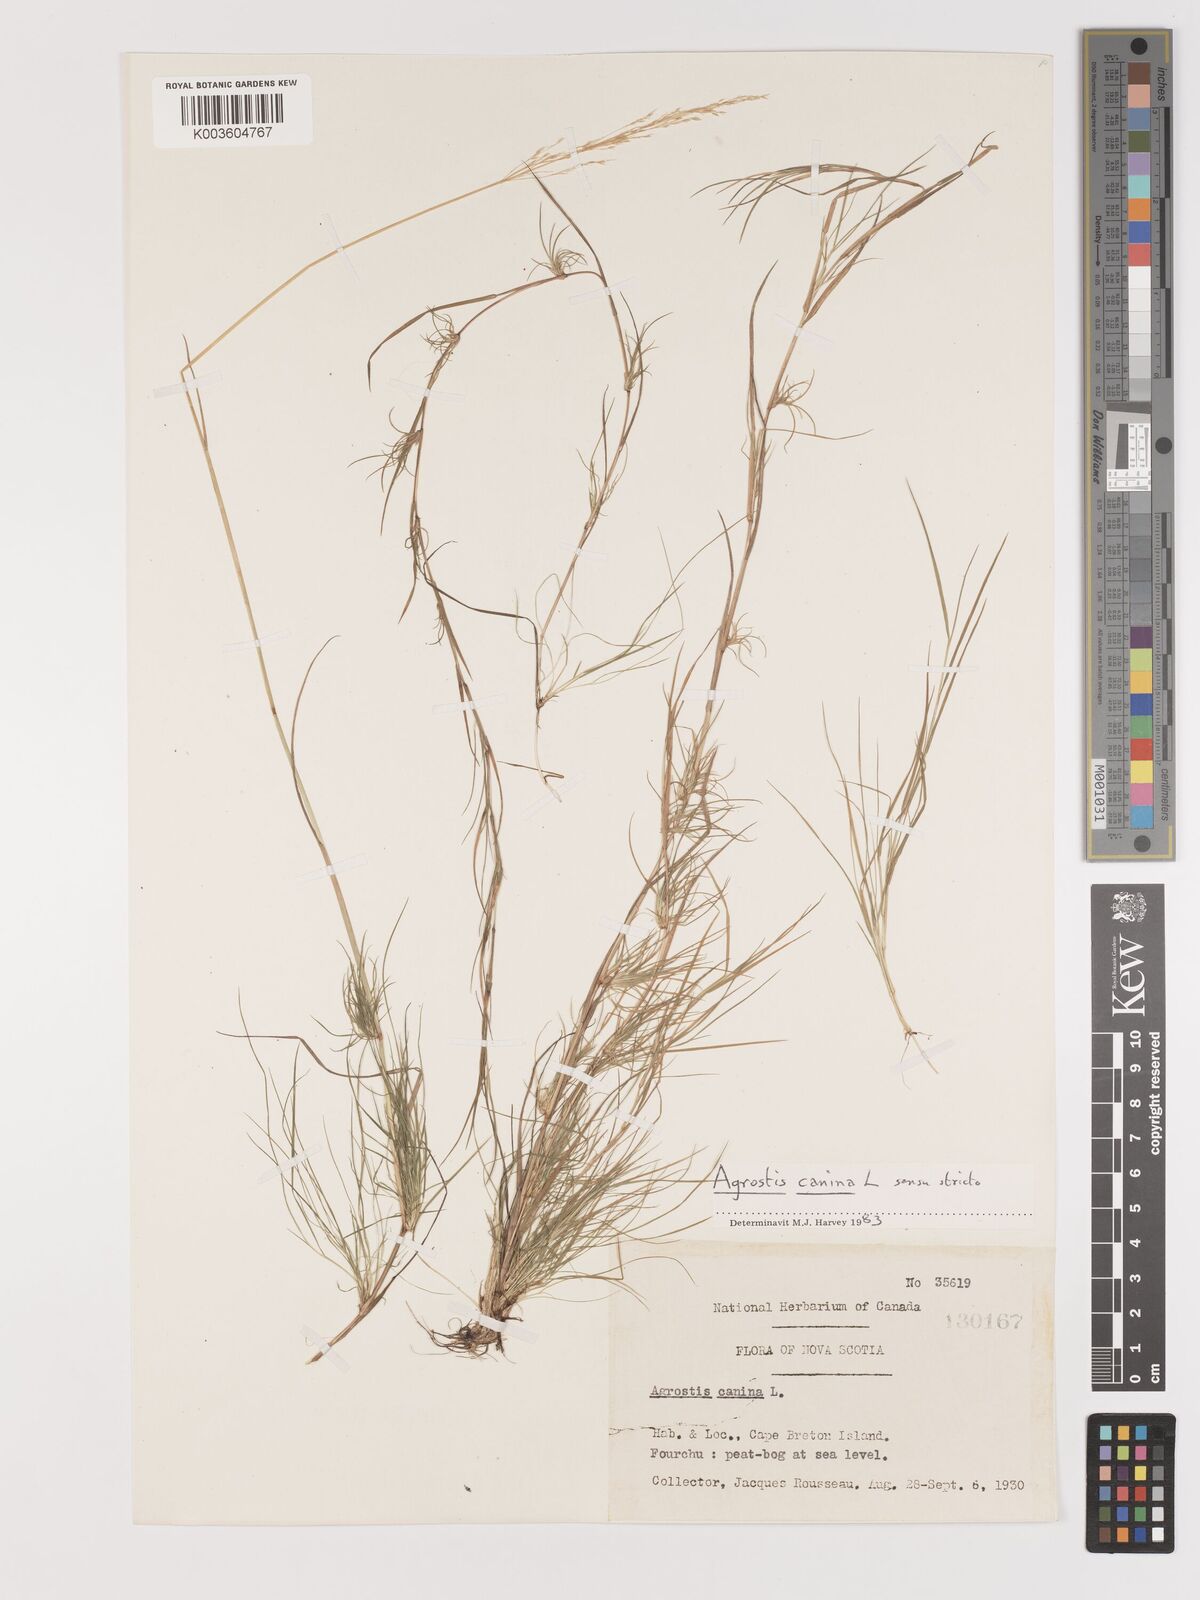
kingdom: Plantae
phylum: Tracheophyta
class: Liliopsida
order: Poales
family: Poaceae
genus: Agrostis
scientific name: Agrostis canina
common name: Velvet bent
